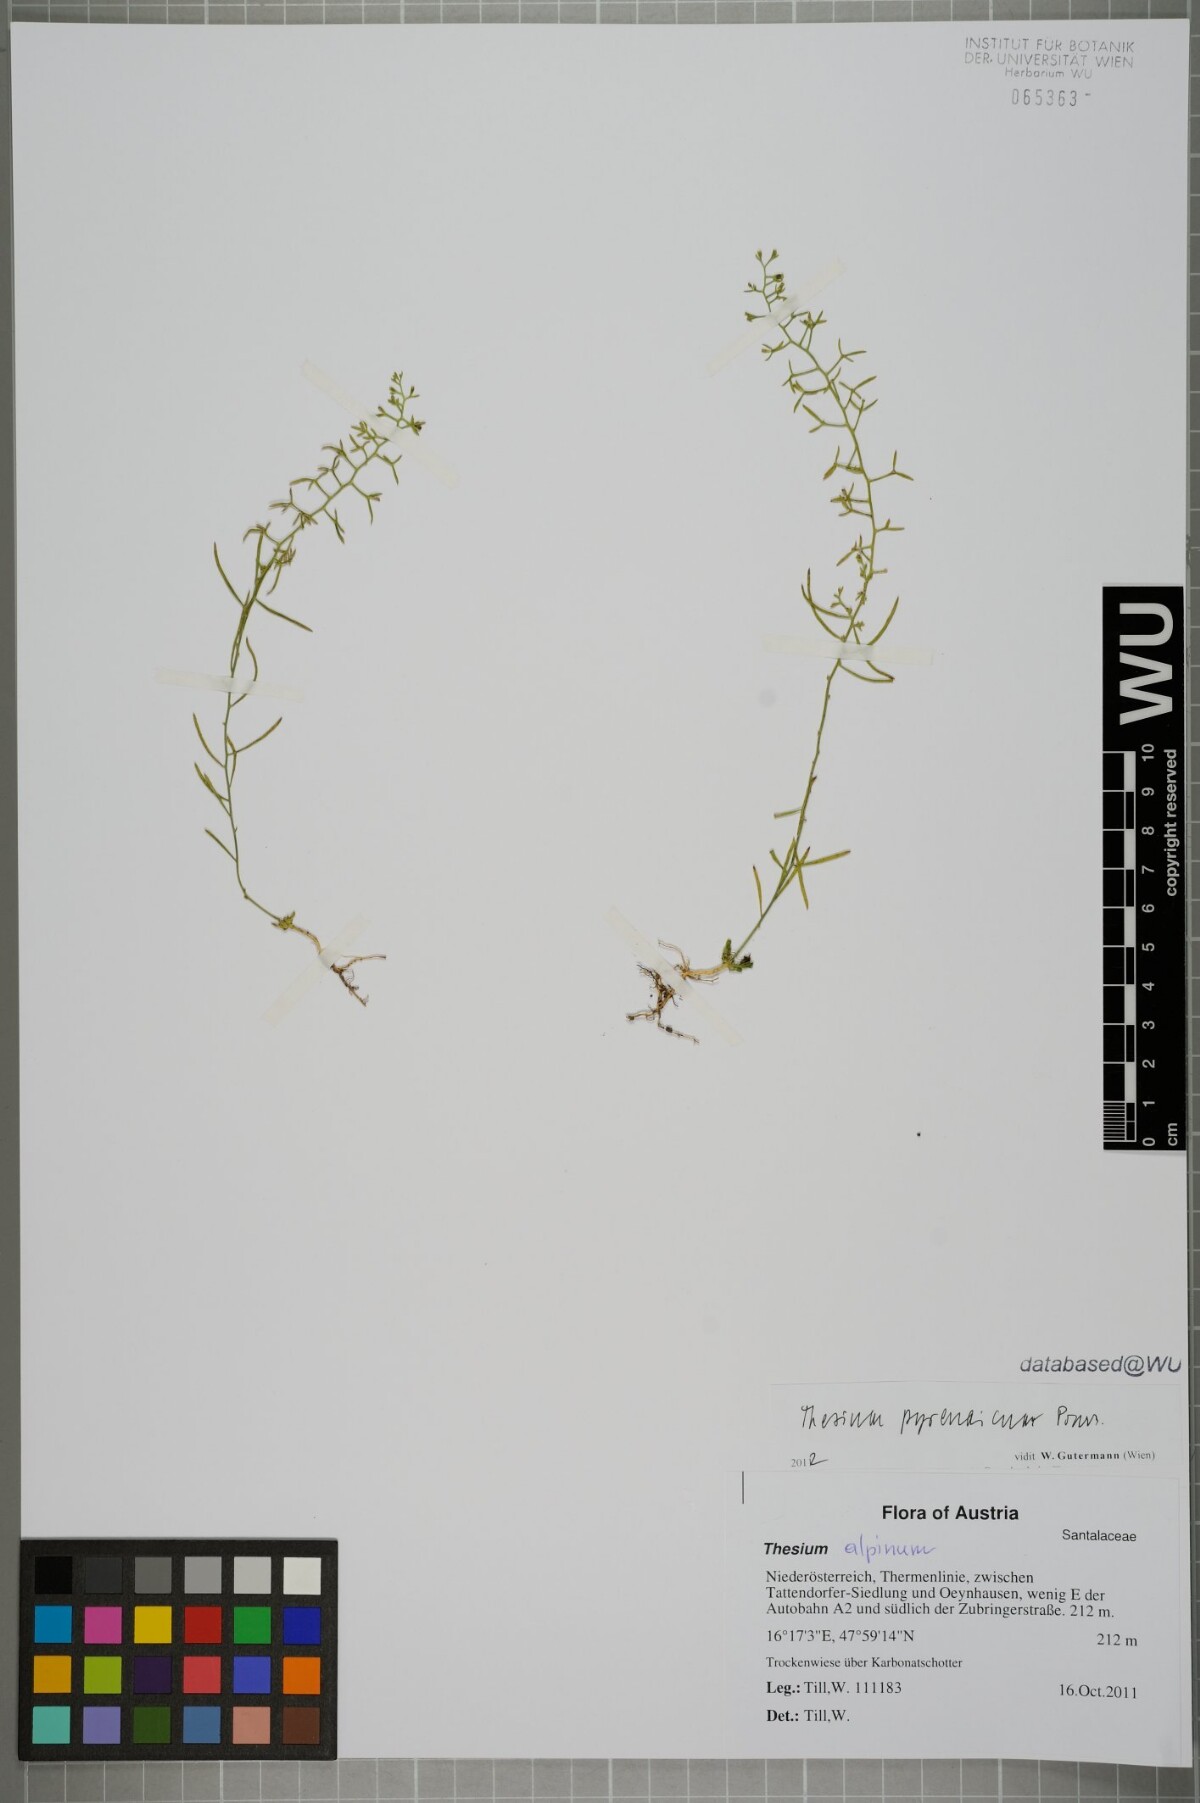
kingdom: Plantae
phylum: Tracheophyta
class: Magnoliopsida
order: Santalales
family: Thesiaceae
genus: Thesium
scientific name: Thesium pyrenaicum
